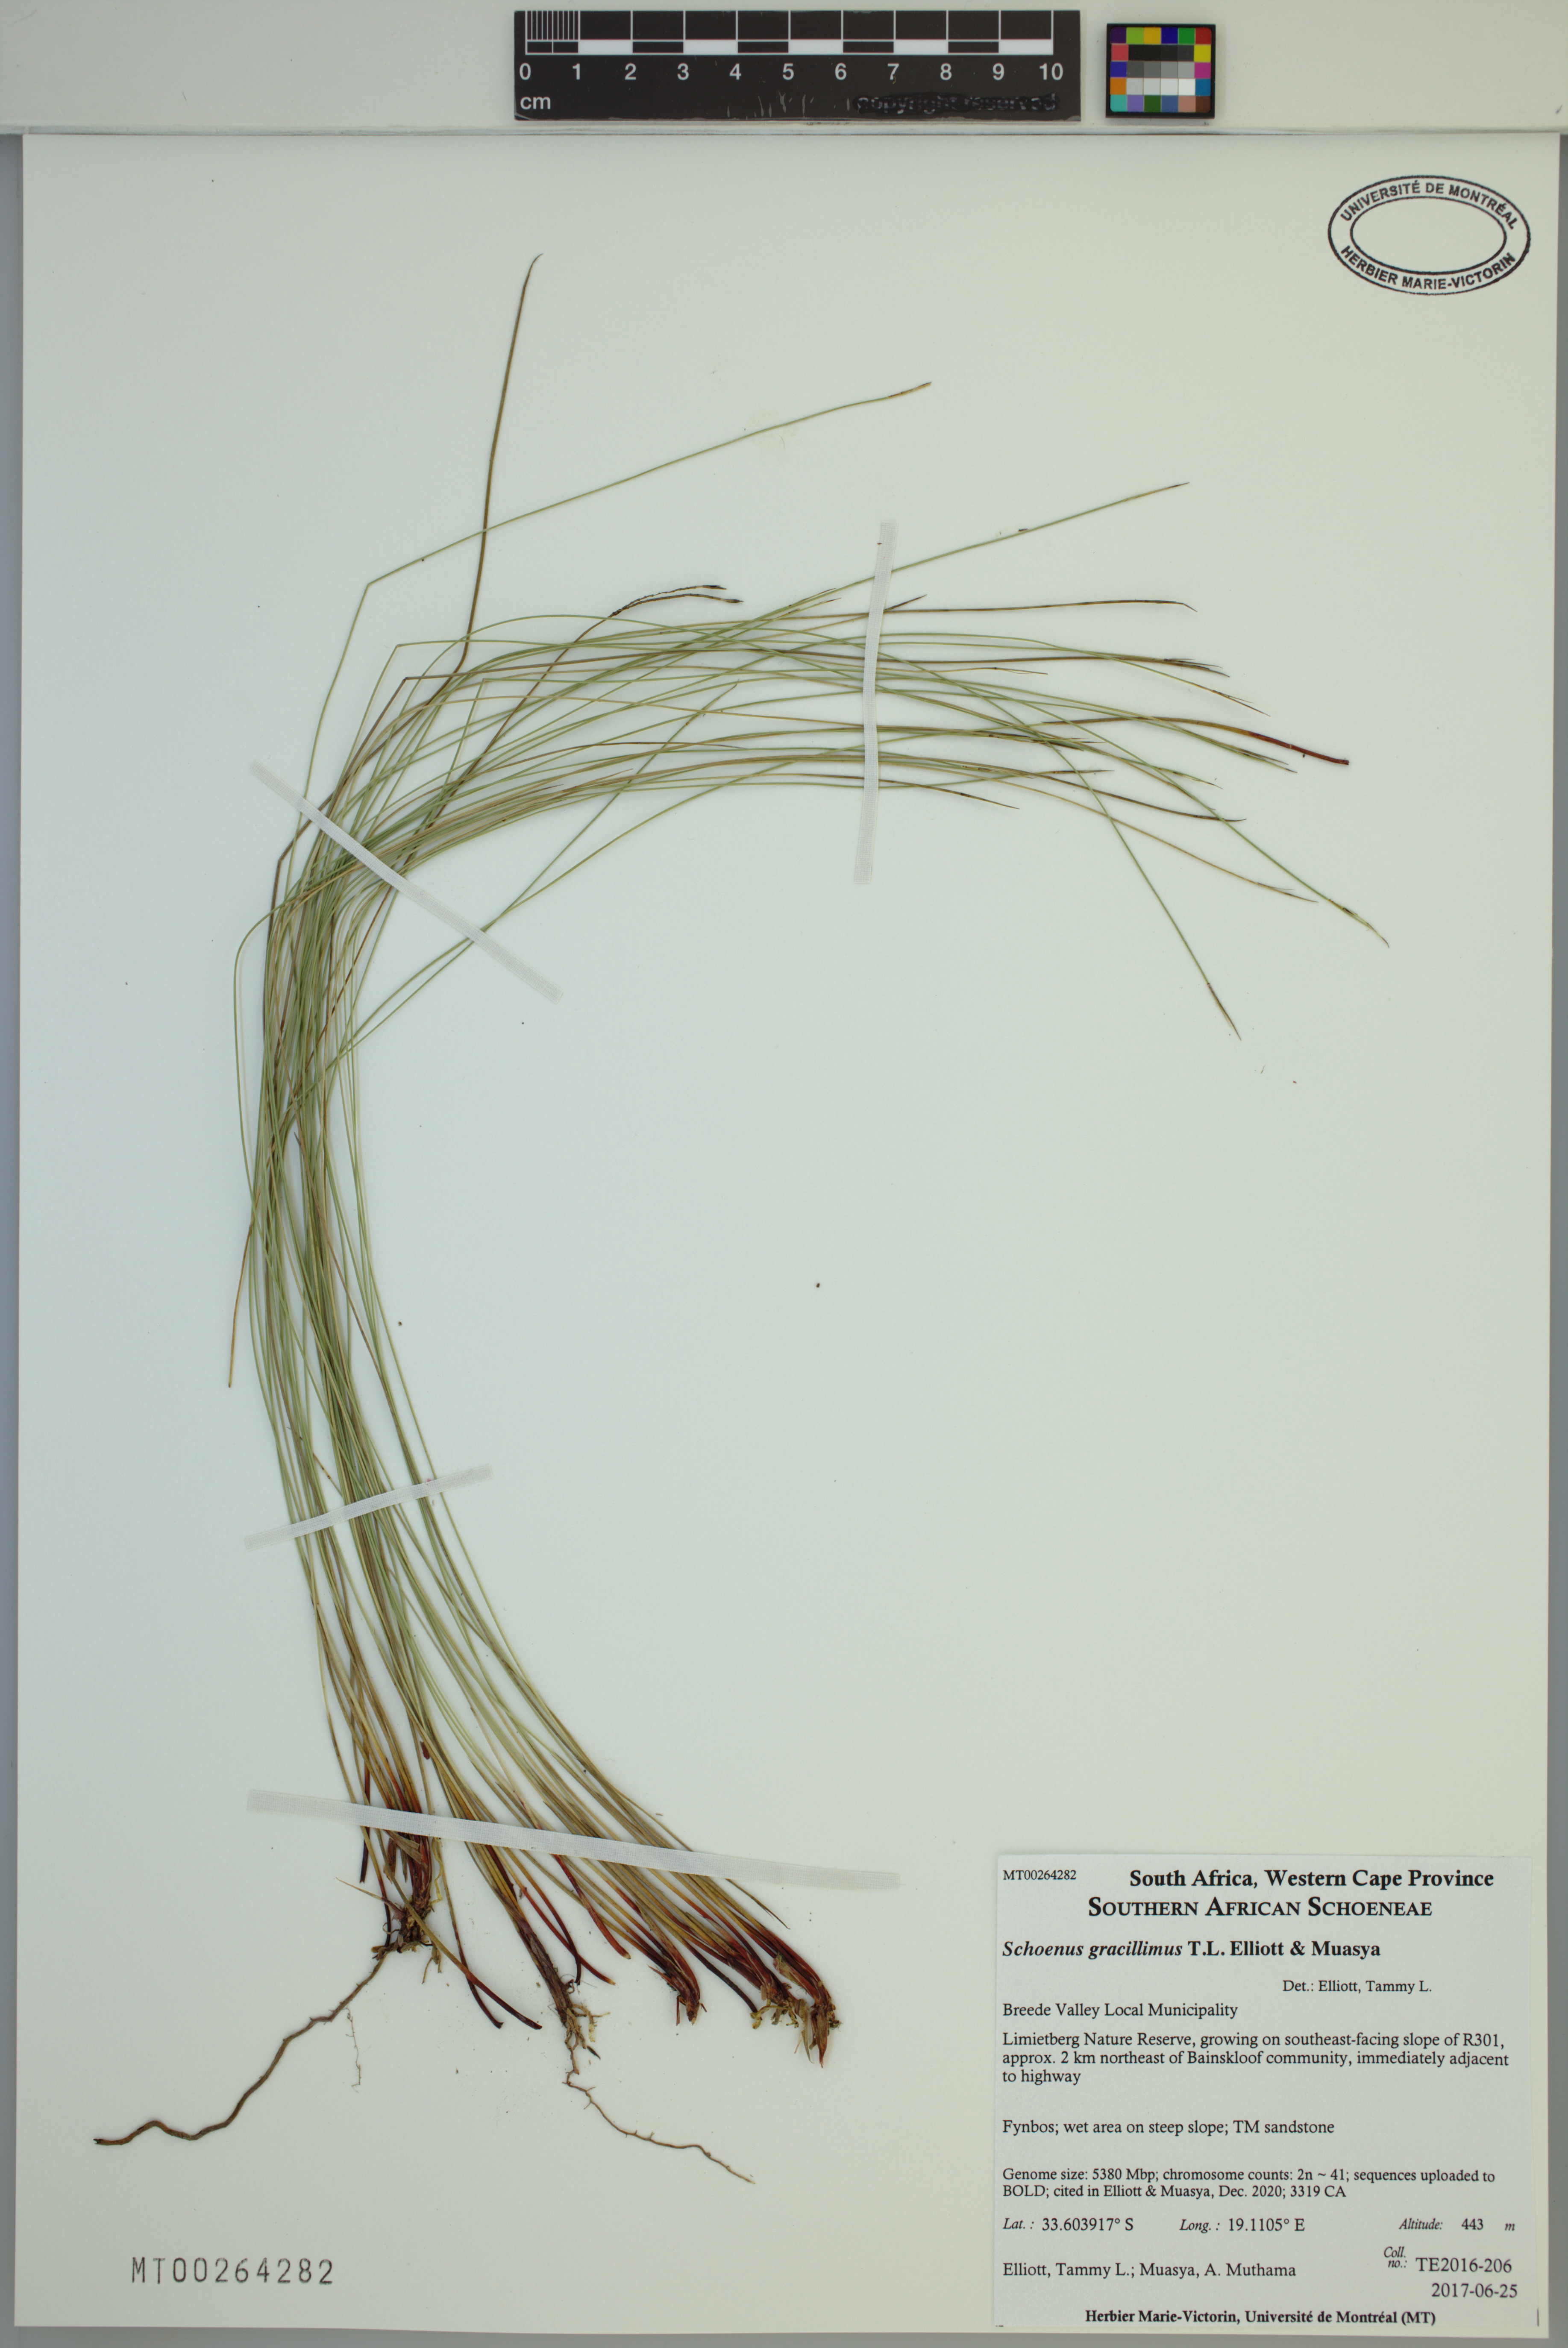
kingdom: Plantae
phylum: Tracheophyta
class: Liliopsida
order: Poales
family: Cyperaceae
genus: Schoenus
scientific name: Schoenus gracillimus
